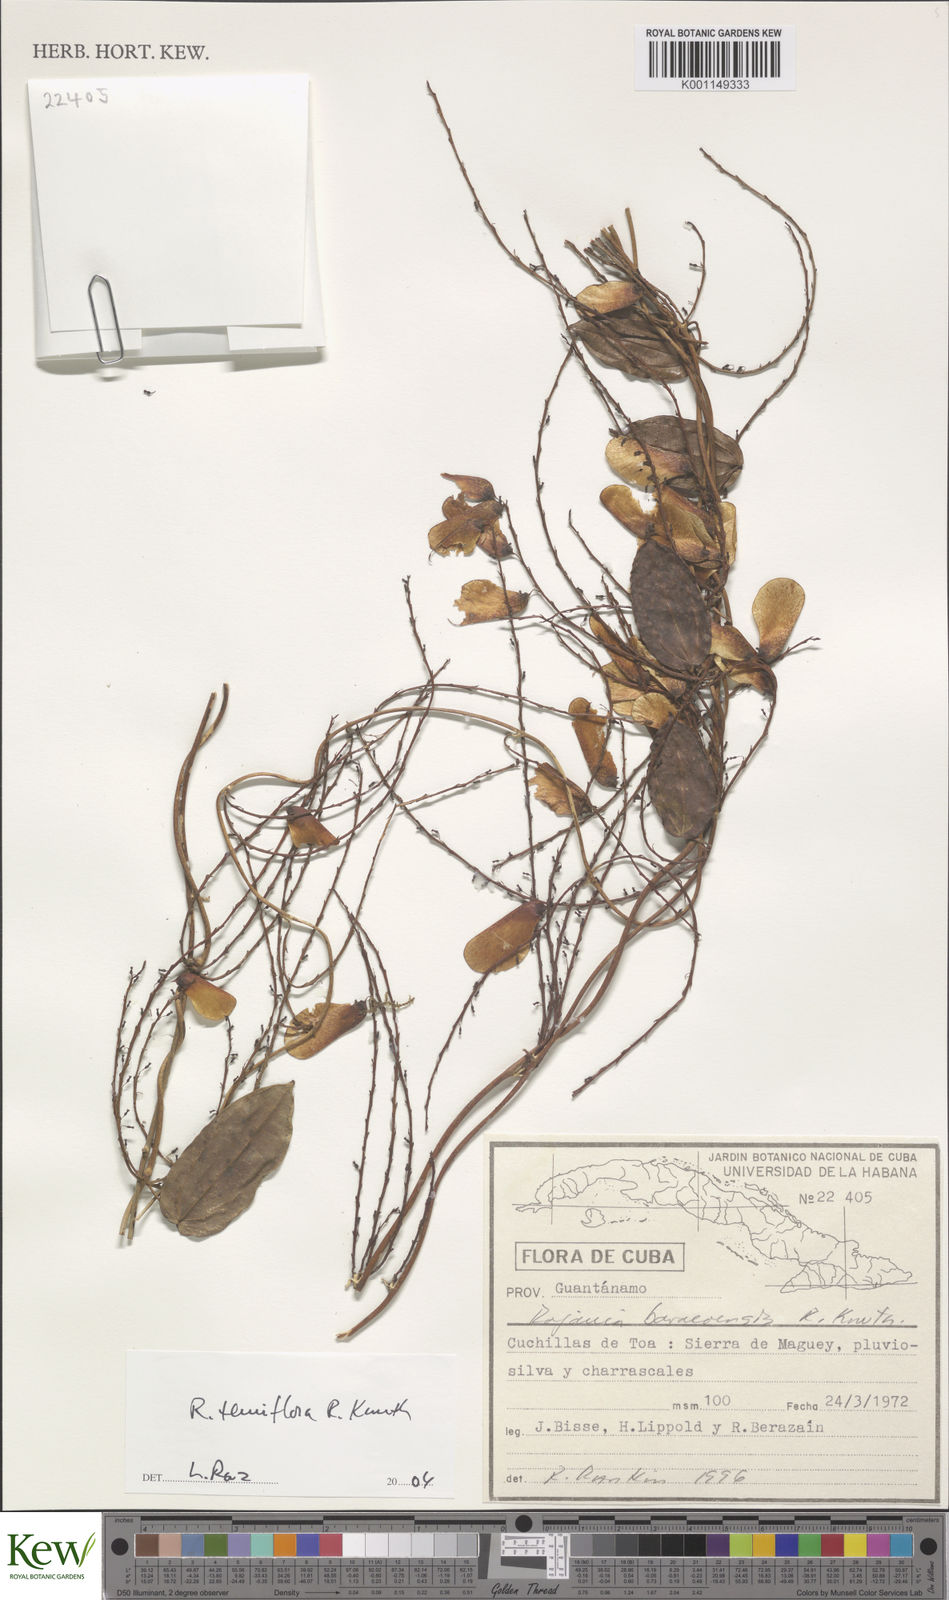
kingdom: Plantae
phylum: Tracheophyta
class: Liliopsida
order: Dioscoreales
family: Dioscoreaceae
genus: Dioscorea
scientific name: Dioscorea bulbifera
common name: Air yam
